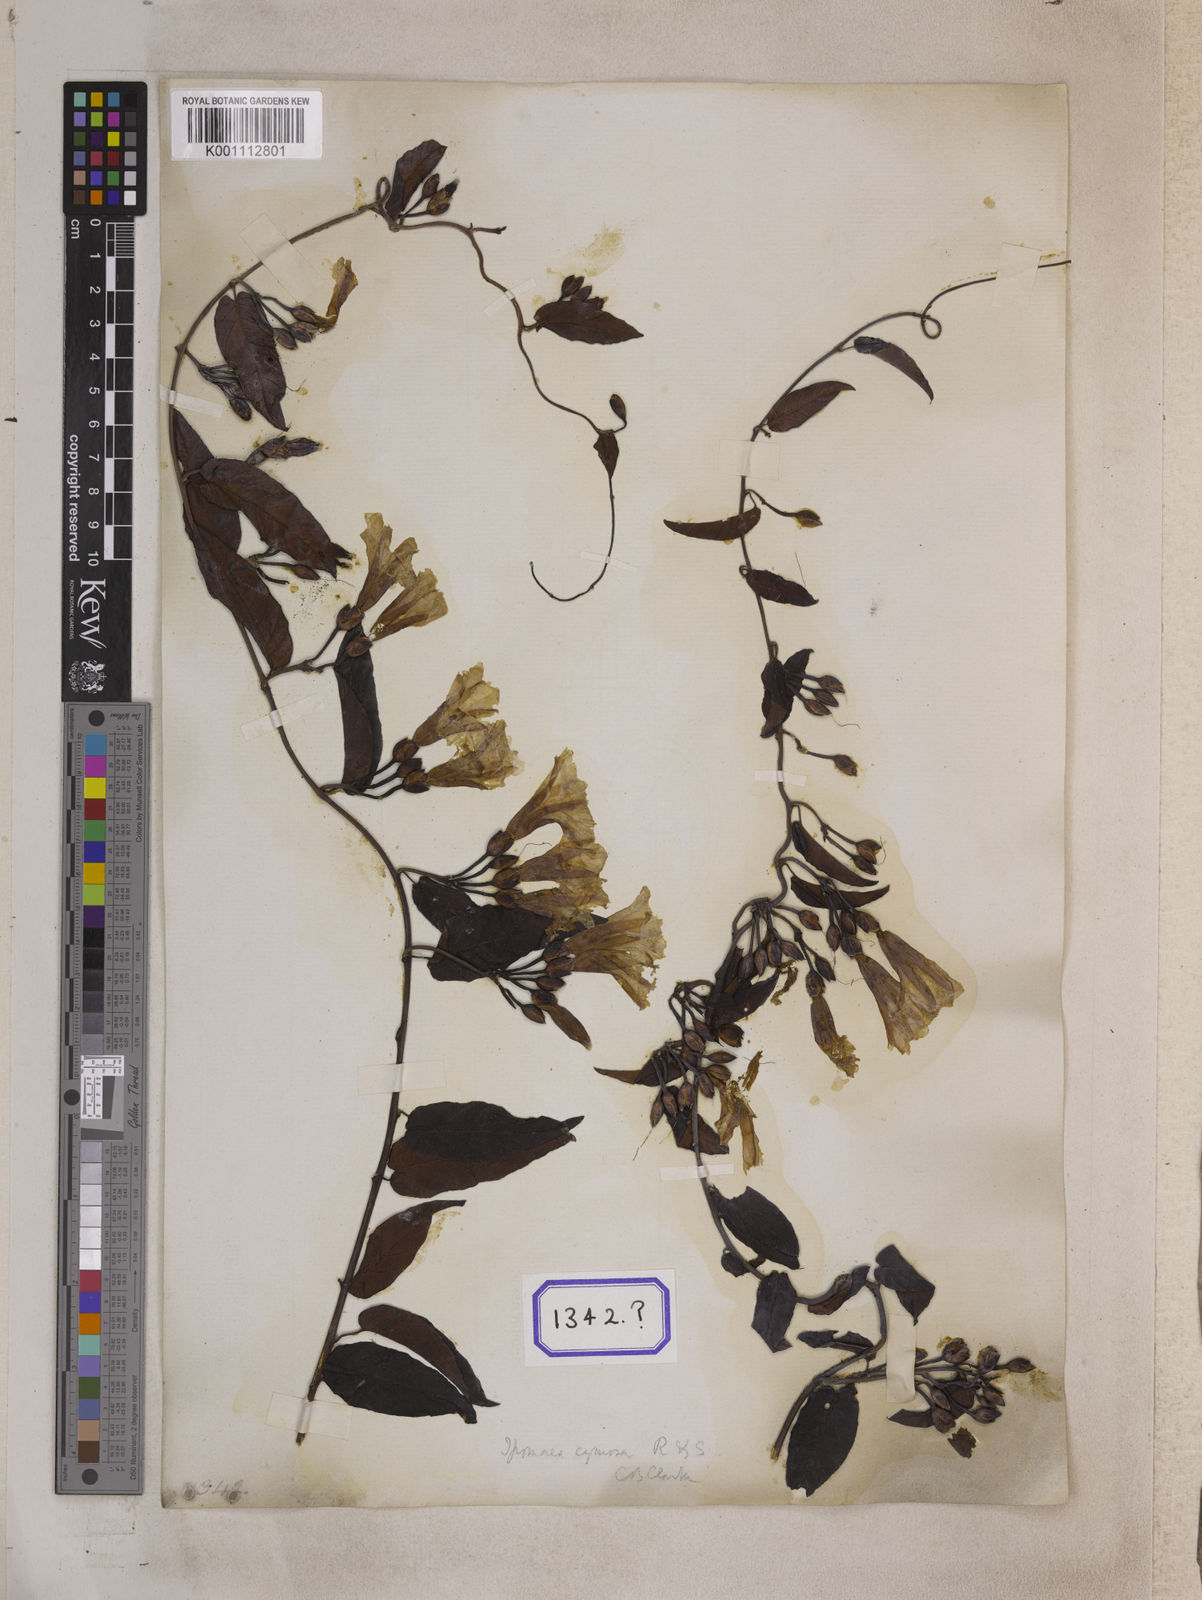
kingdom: Plantae
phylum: Tracheophyta
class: Magnoliopsida
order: Solanales
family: Convolvulaceae
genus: Camonea
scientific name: Camonea umbellata
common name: Hogvine
